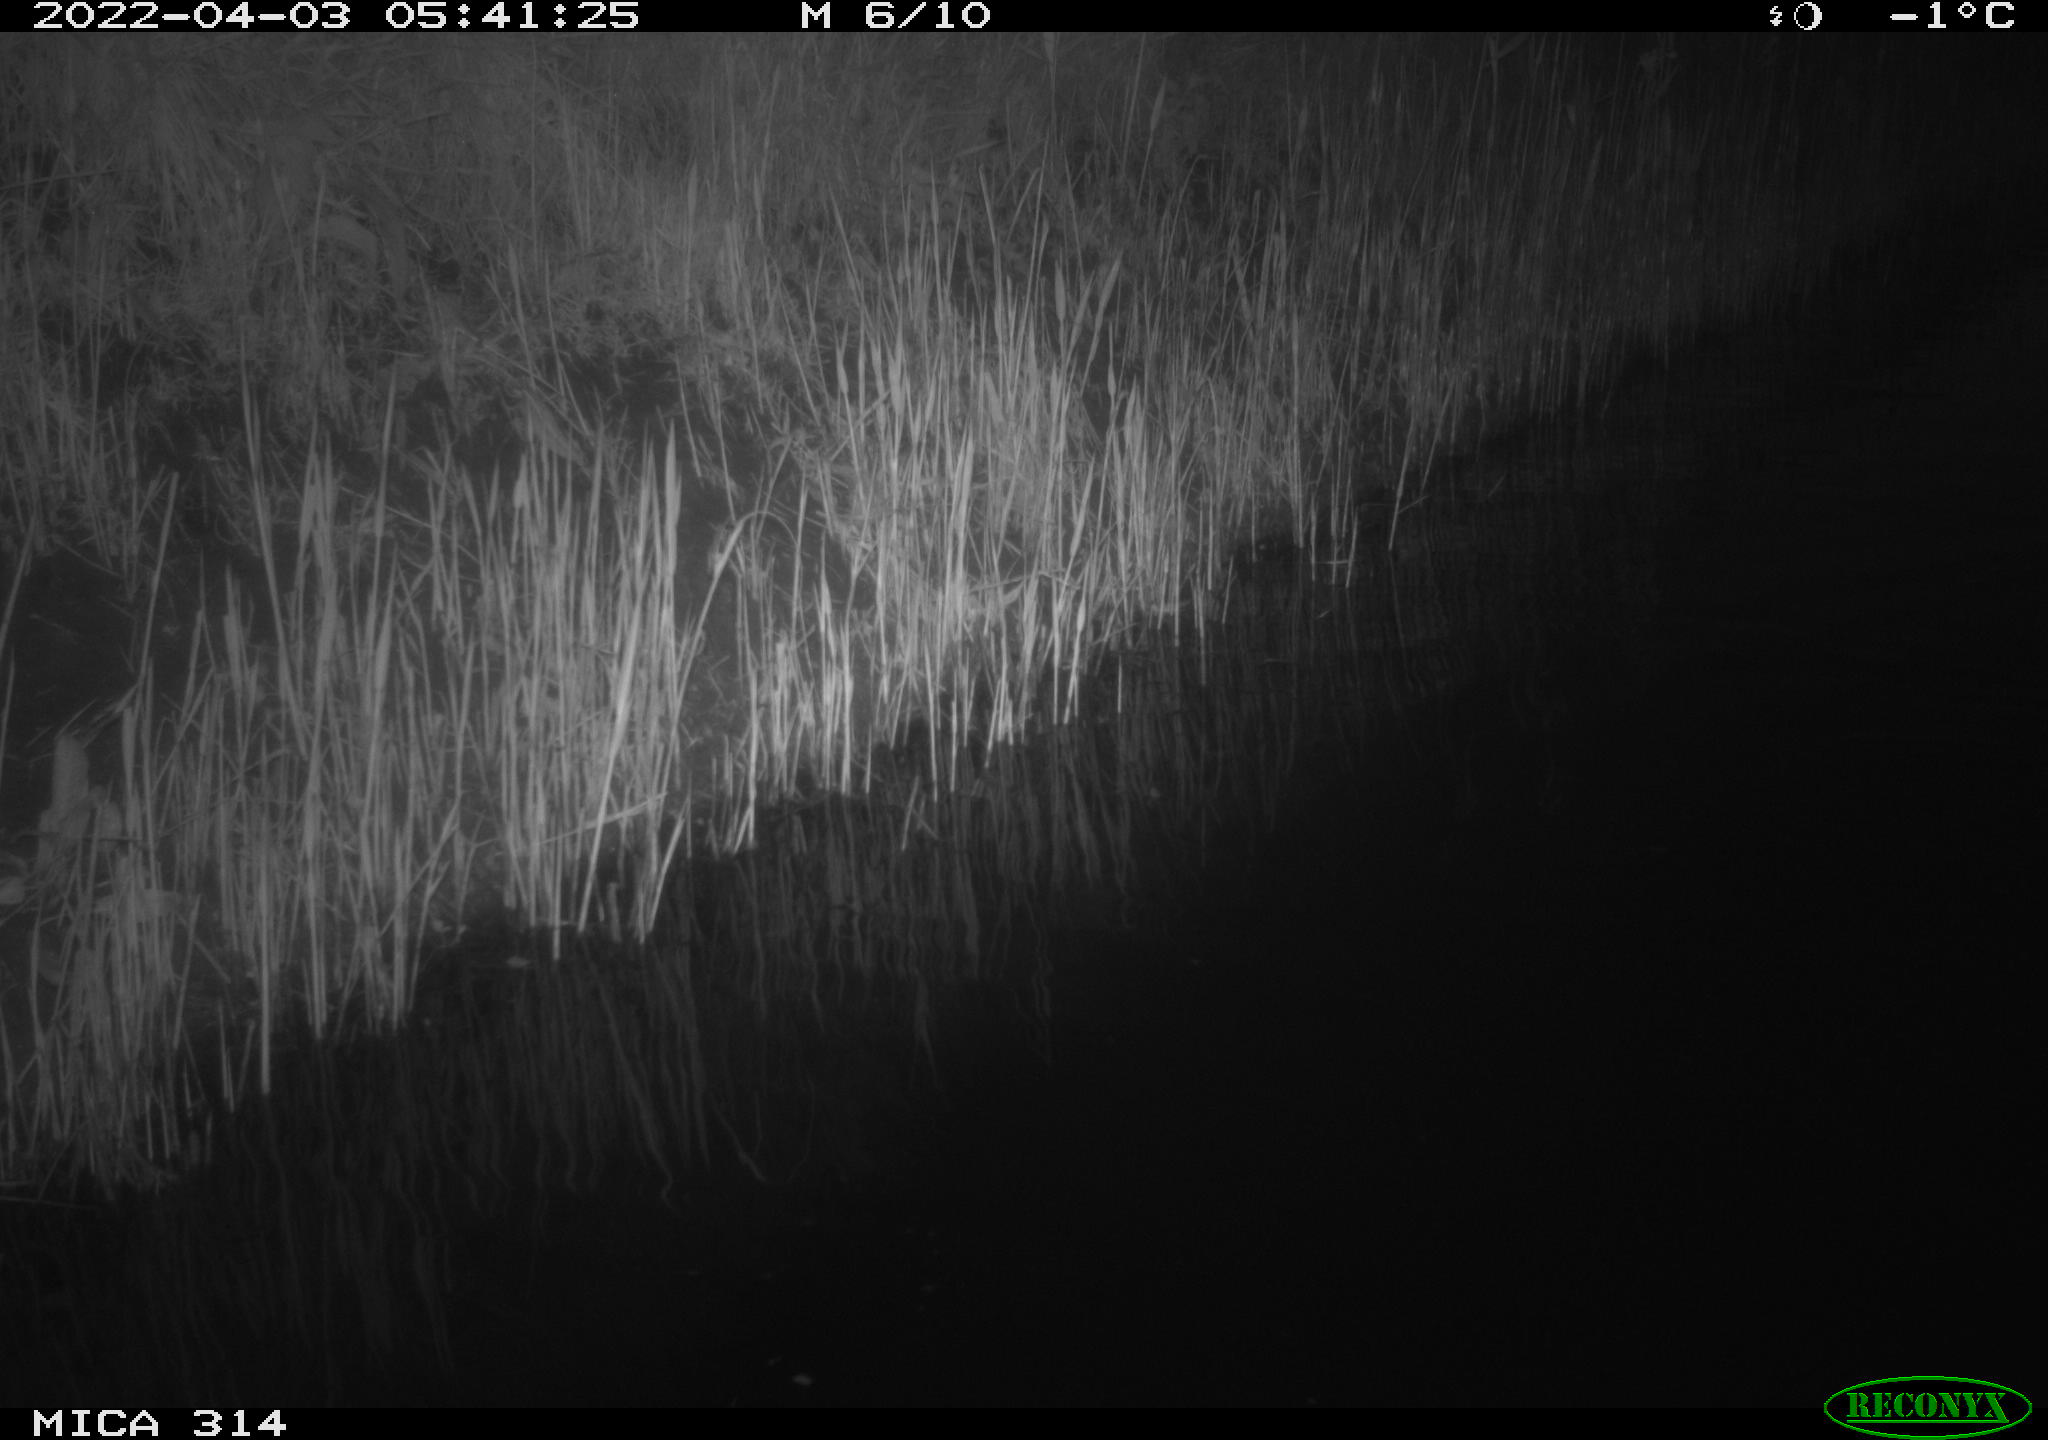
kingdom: Animalia
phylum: Chordata
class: Aves
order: Anseriformes
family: Anatidae
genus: Anas
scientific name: Anas platyrhynchos
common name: Mallard
